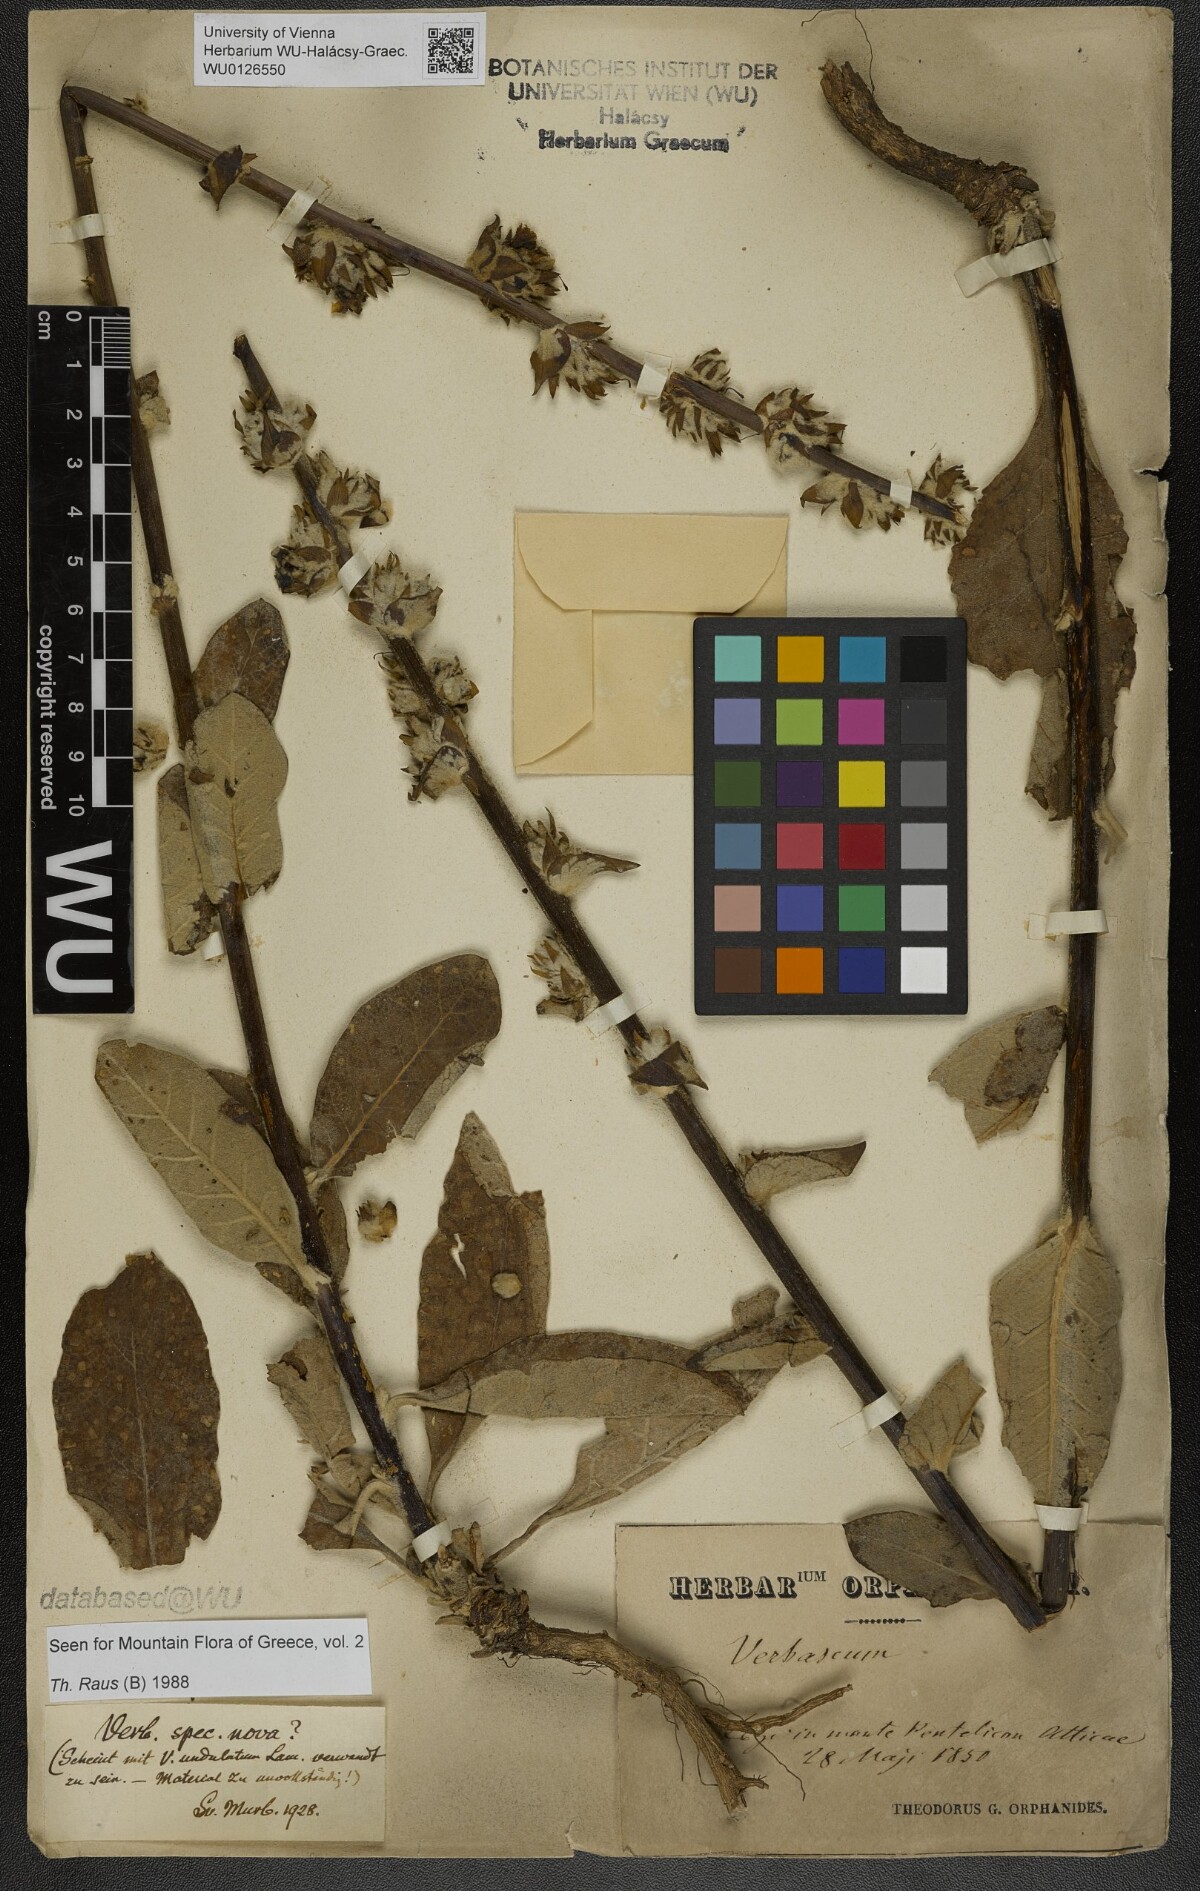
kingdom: Plantae
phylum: Tracheophyta
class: Magnoliopsida
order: Lamiales
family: Scrophulariaceae
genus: Verbascum
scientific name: Verbascum
